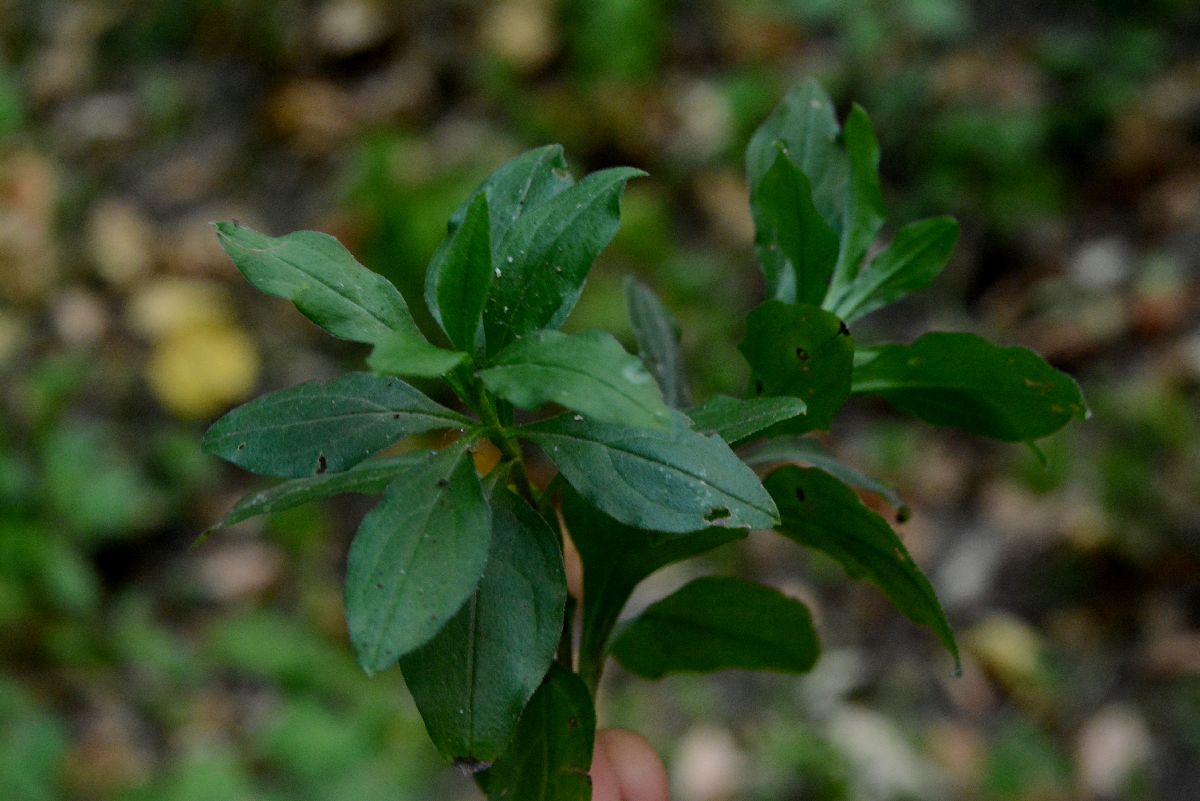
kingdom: Plantae
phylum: Tracheophyta
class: Magnoliopsida
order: Boraginales
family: Boraginaceae
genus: Memoremea
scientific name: Memoremea scorpioides
